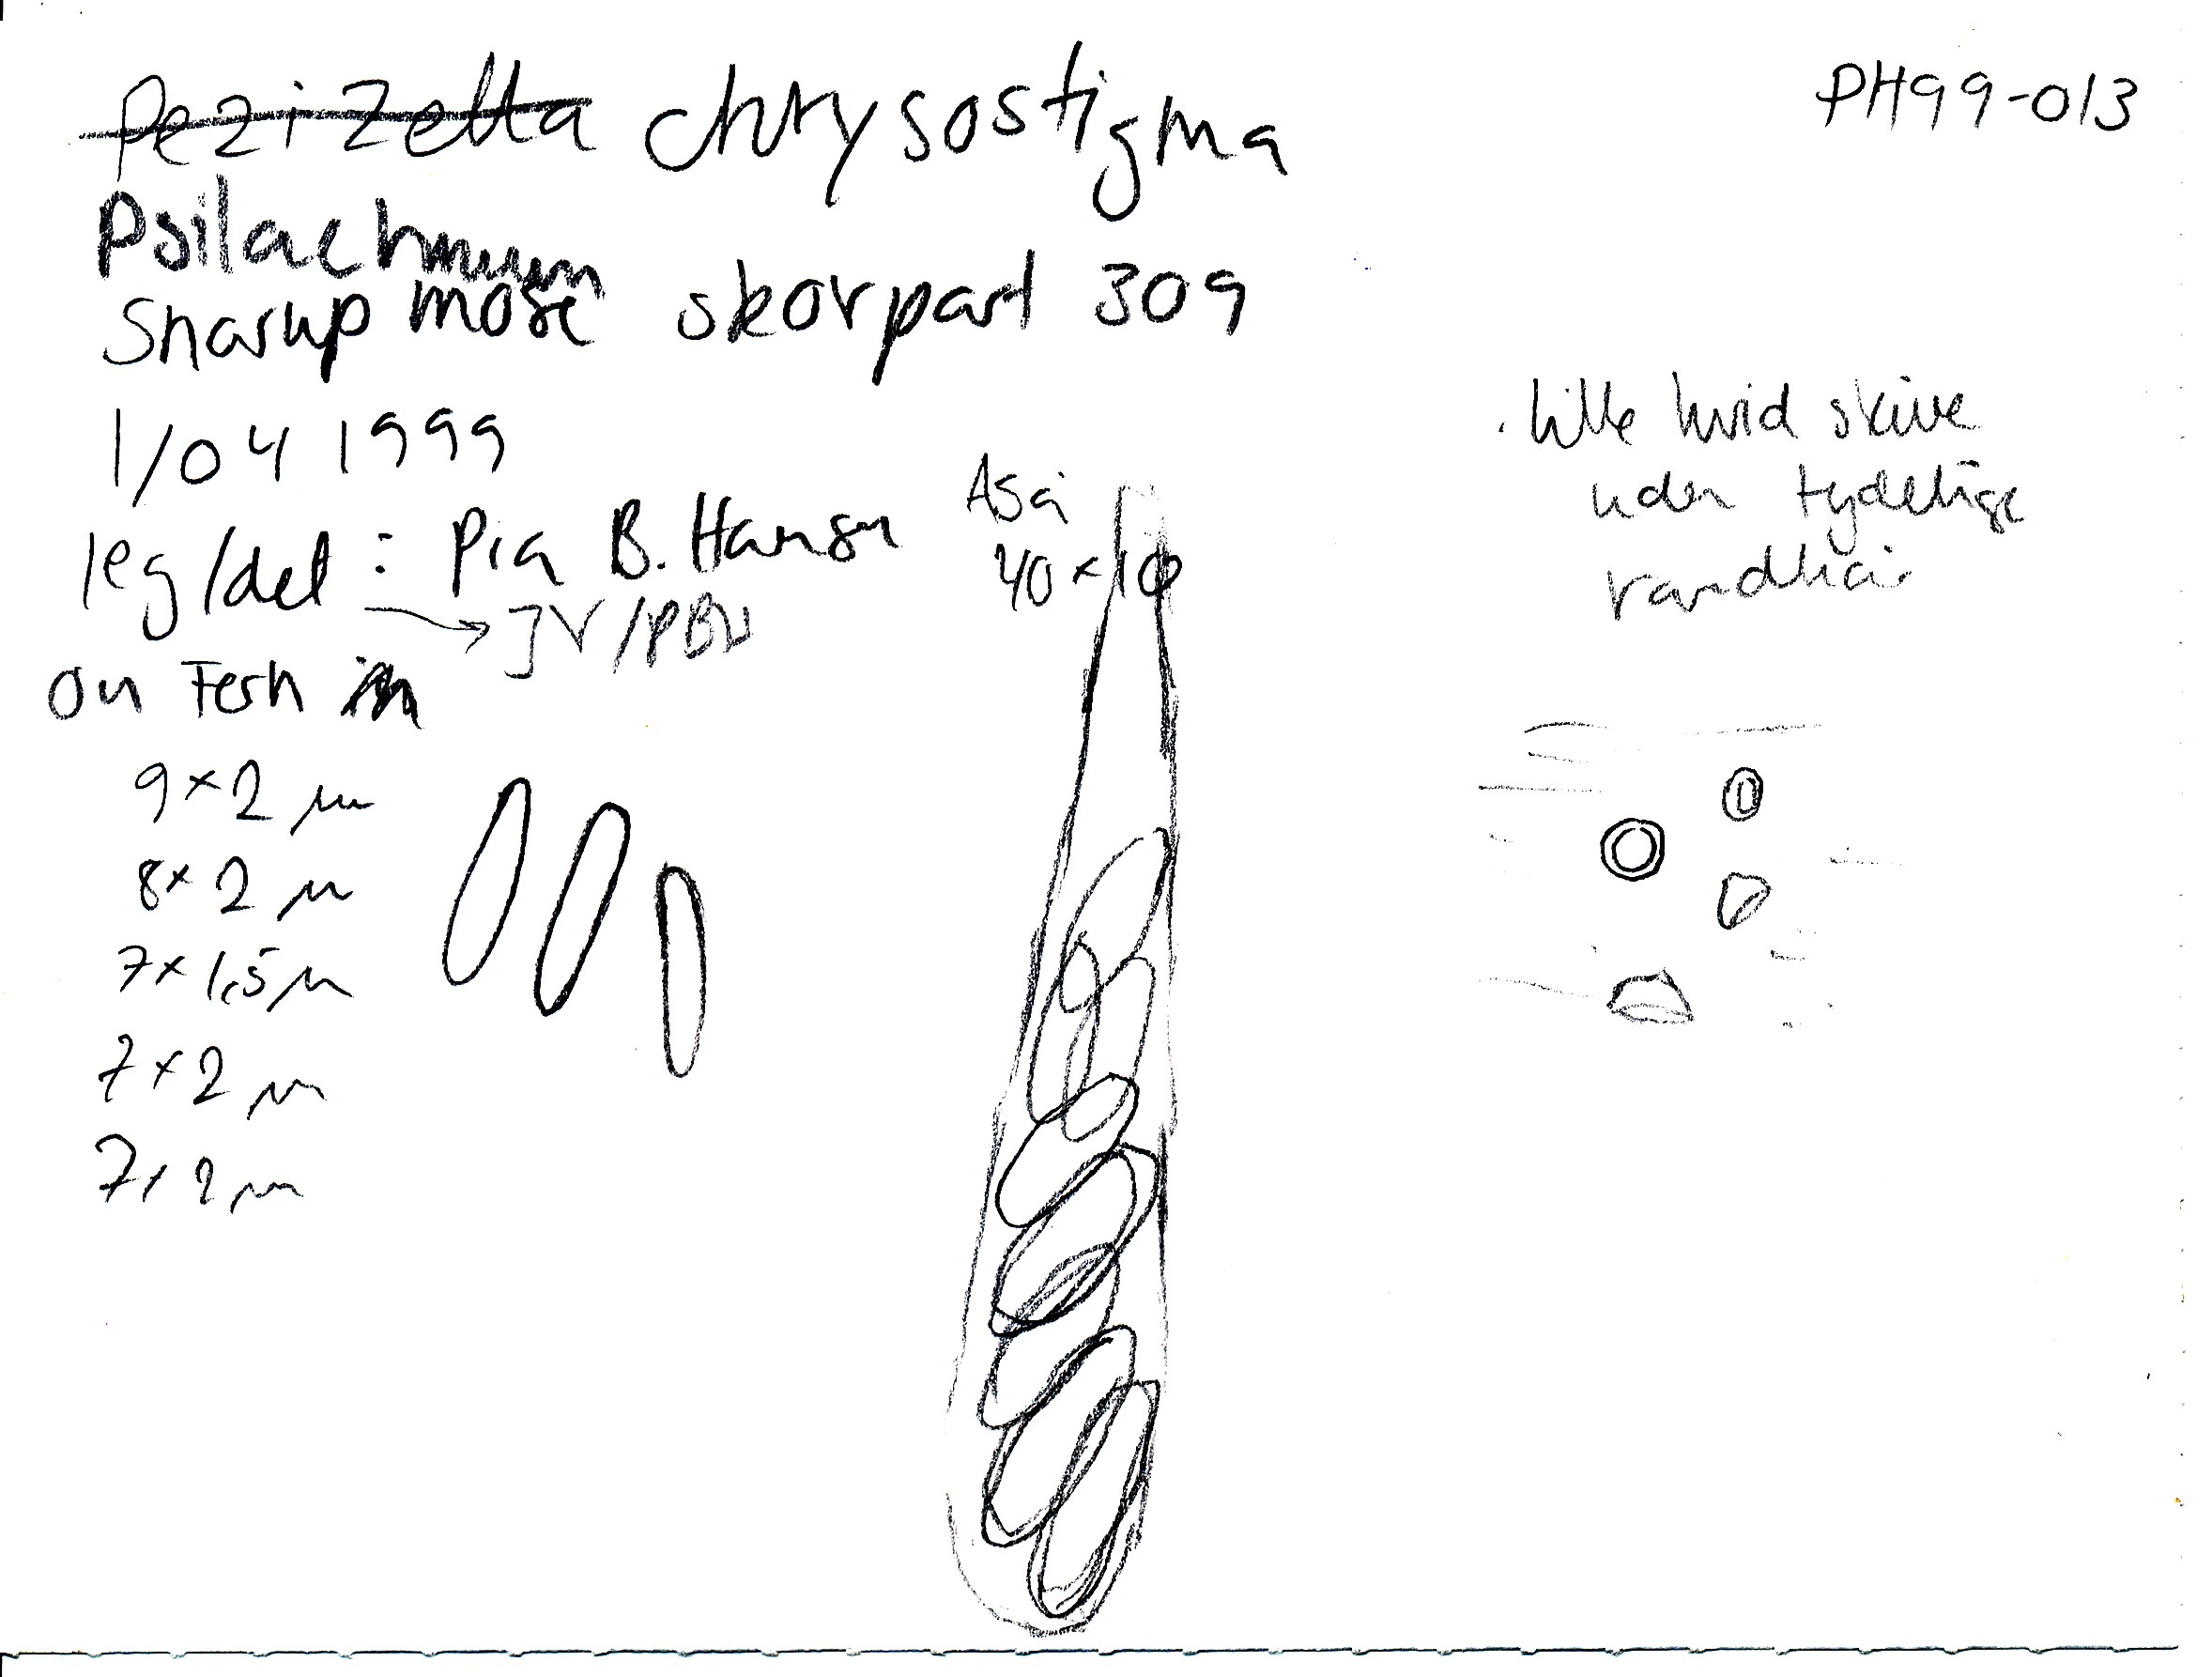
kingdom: Fungi
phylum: Ascomycota
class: Leotiomycetes
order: Helotiales
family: Pezizellaceae
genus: Psilachnum
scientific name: Psilachnum chrysostigmum
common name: gulnende hårskive
